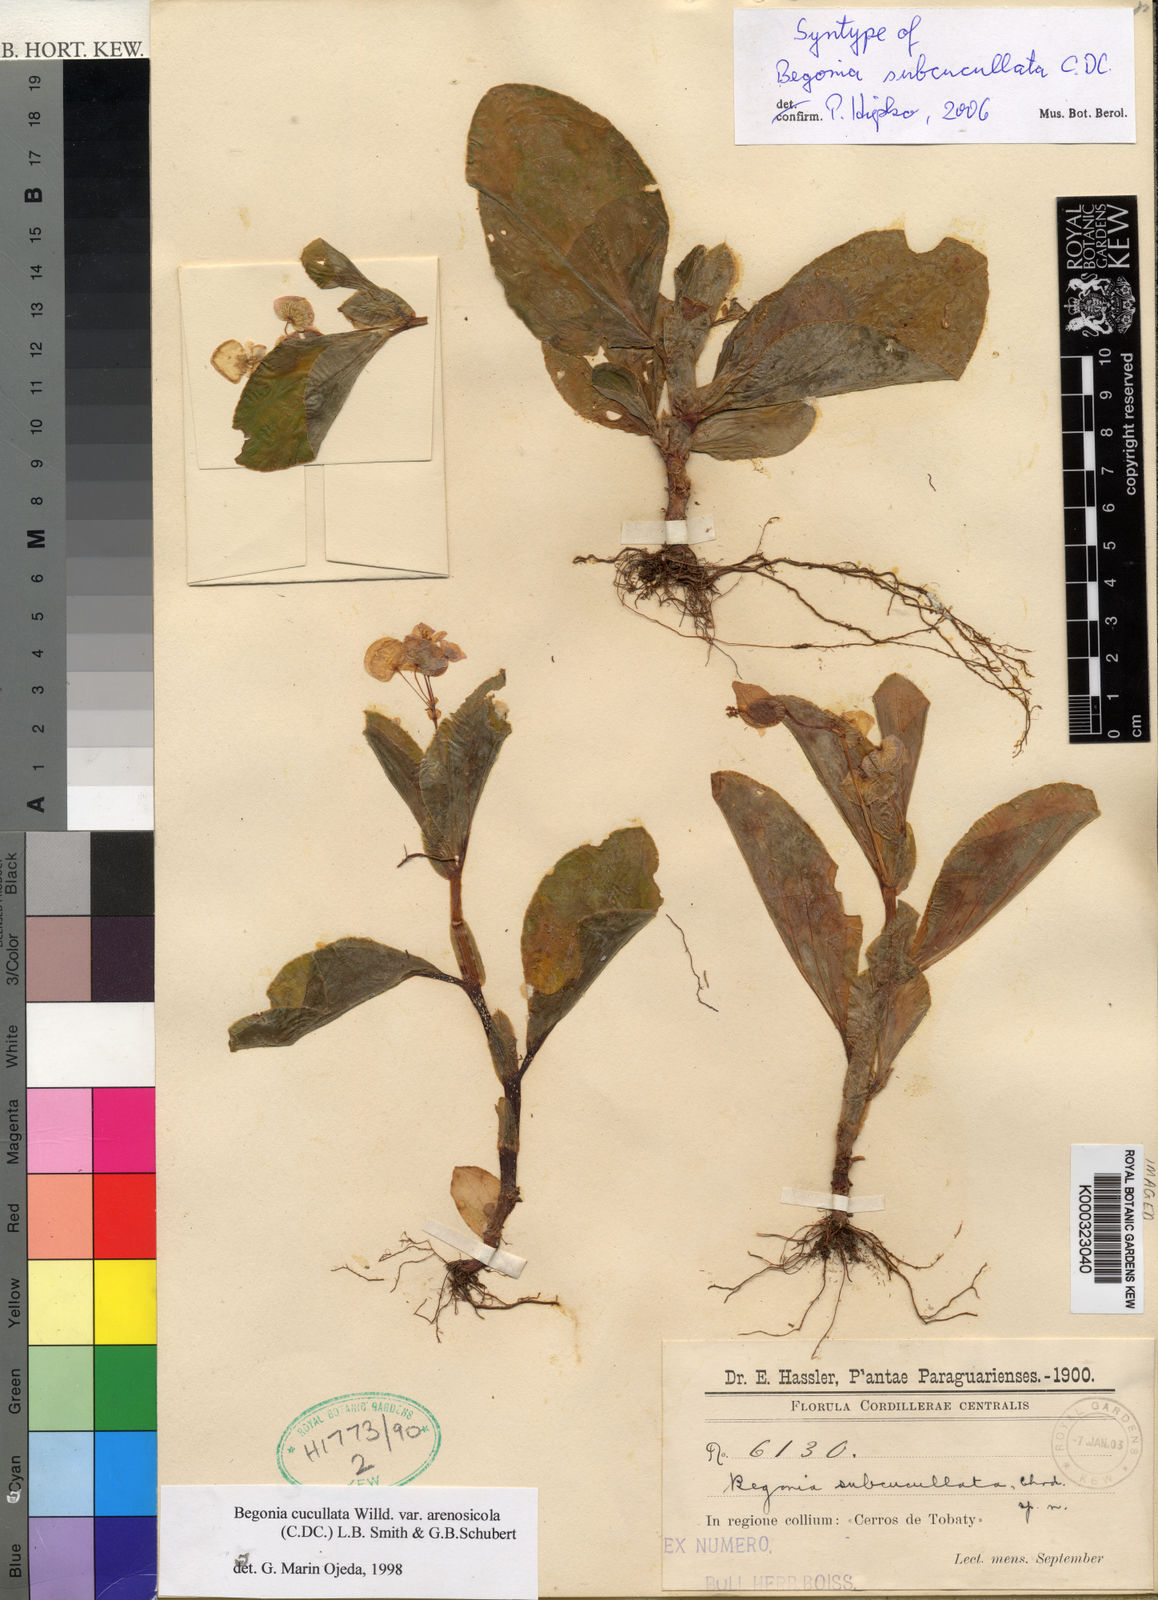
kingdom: Plantae
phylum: Tracheophyta
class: Magnoliopsida
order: Cucurbitales
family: Begoniaceae
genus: Begonia
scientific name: Begonia
